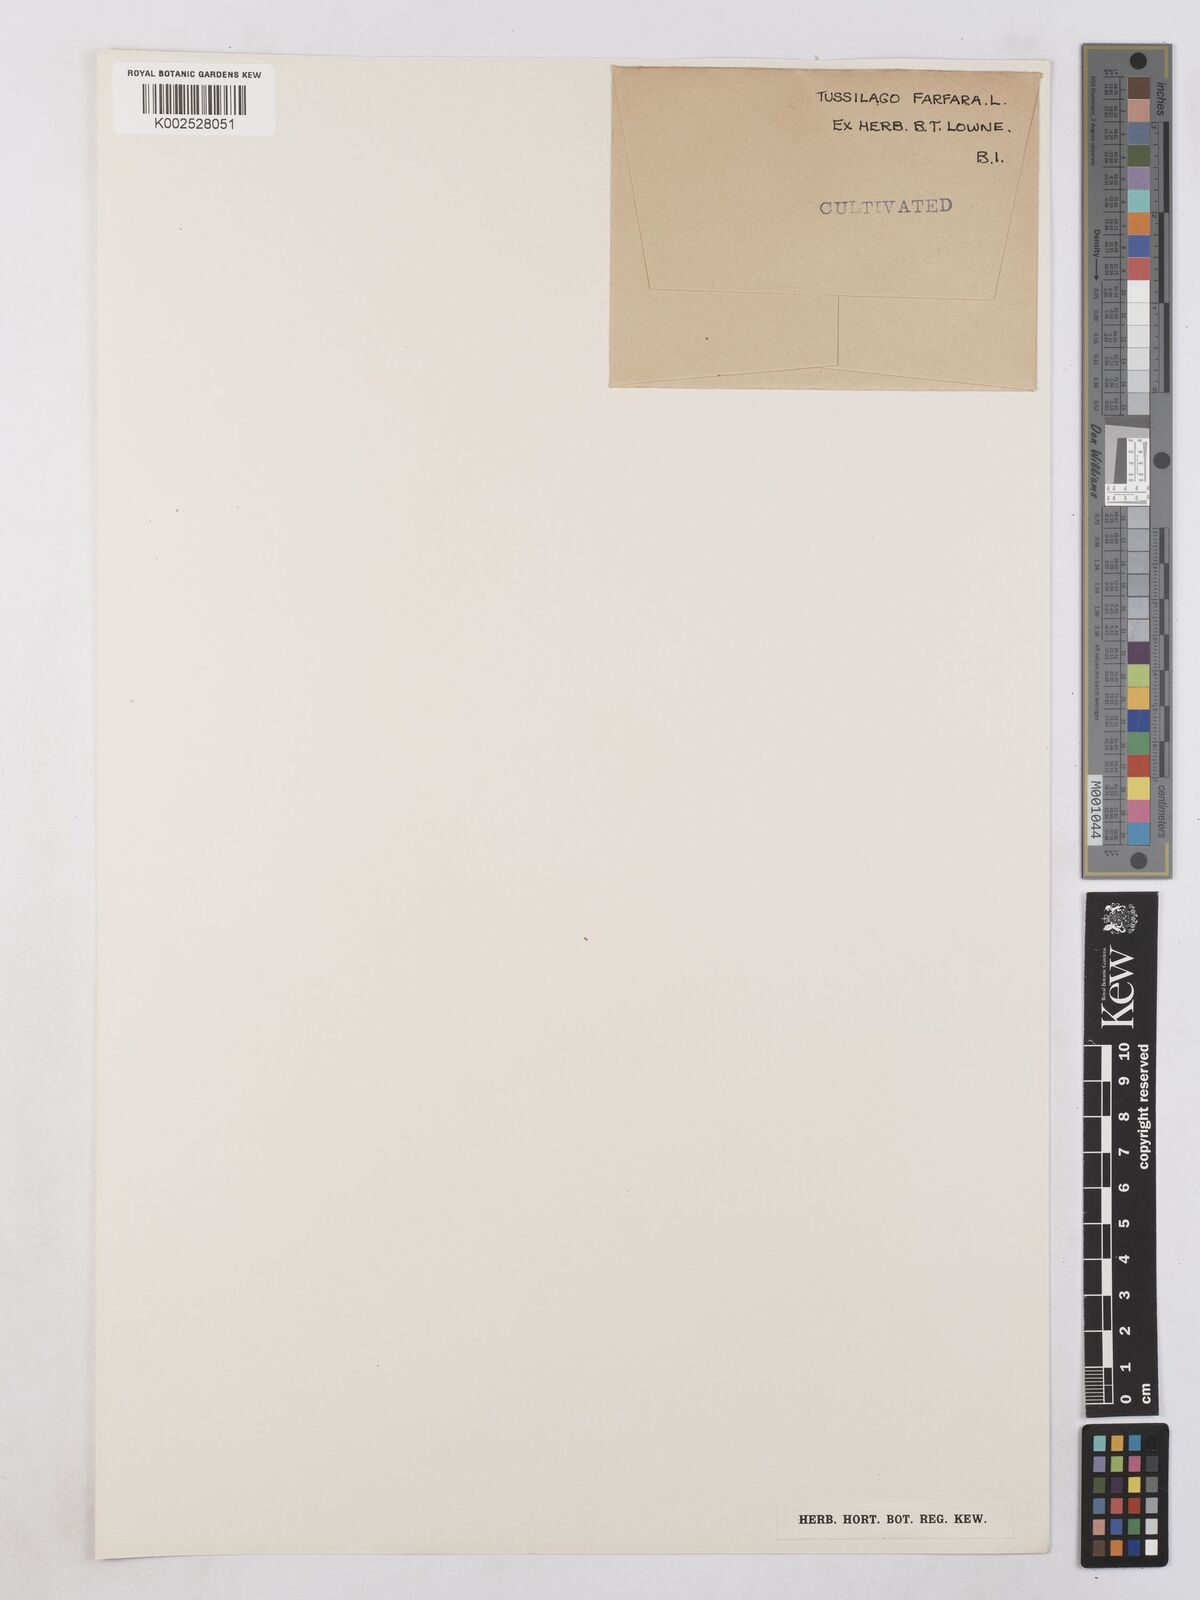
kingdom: Plantae
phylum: Tracheophyta
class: Magnoliopsida
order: Asterales
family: Asteraceae
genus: Tussilago
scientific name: Tussilago farfara
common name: Coltsfoot
